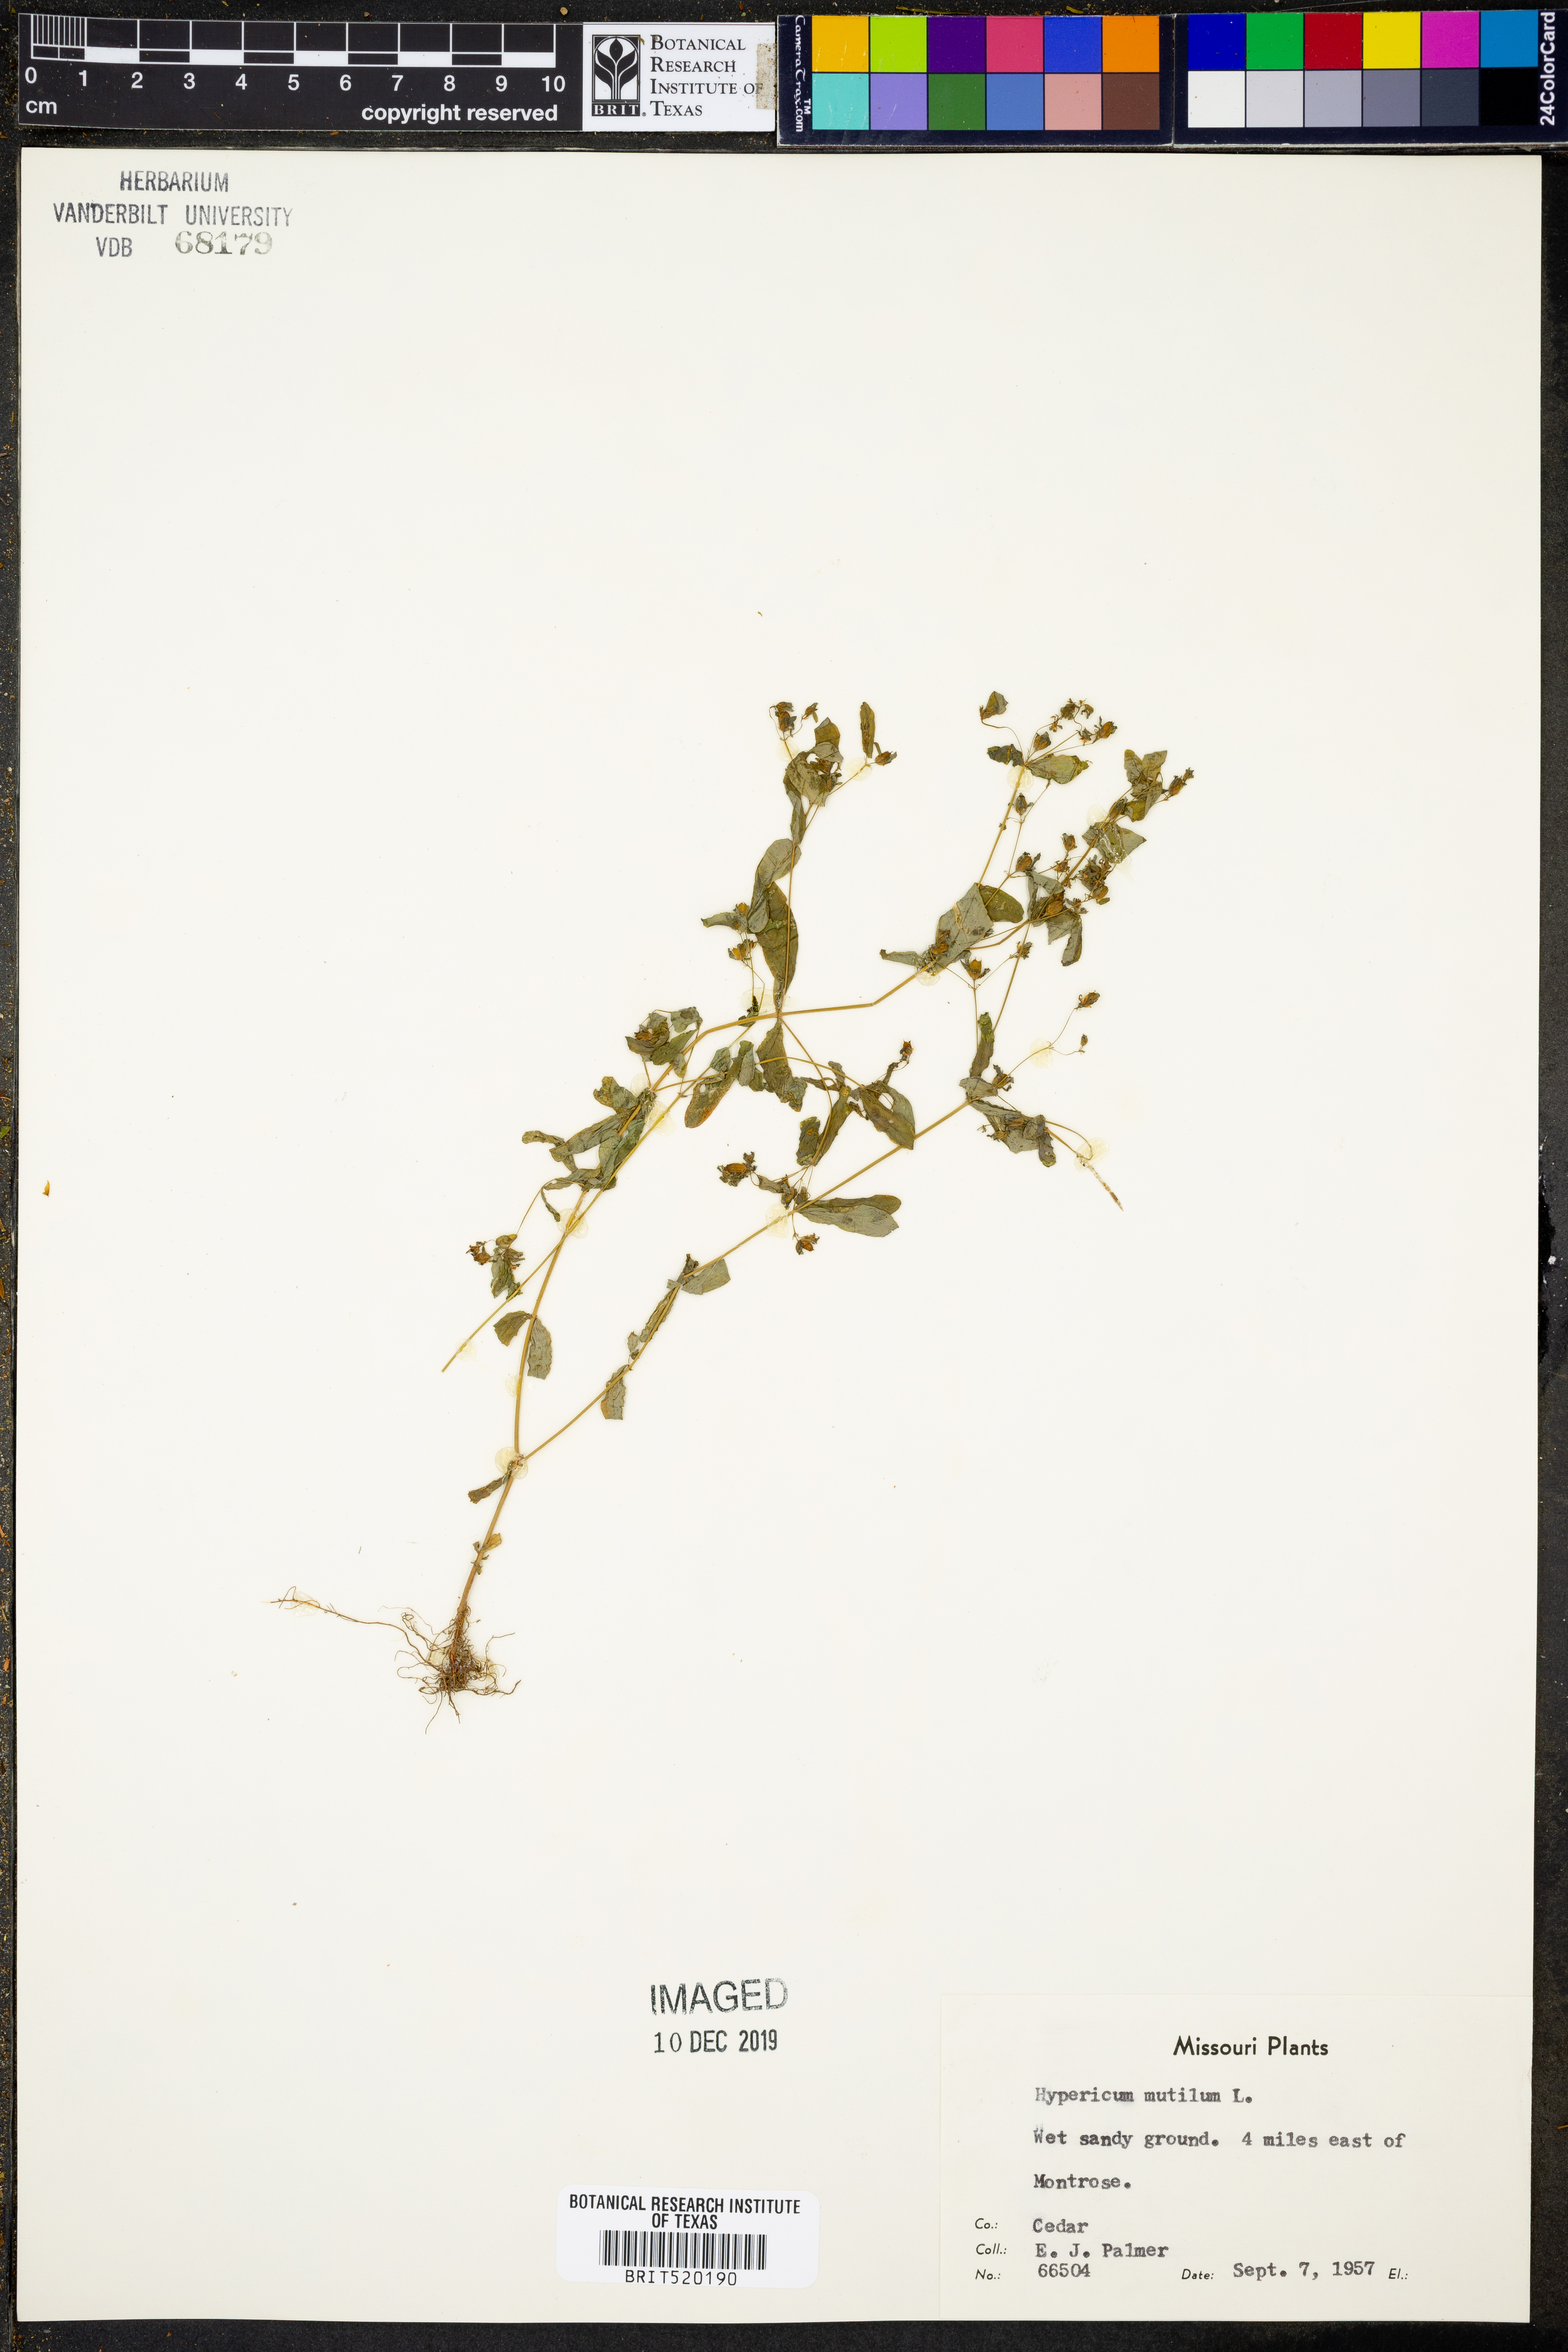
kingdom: Plantae
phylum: Tracheophyta
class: Magnoliopsida
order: Malpighiales
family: Hypericaceae
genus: Hypericum
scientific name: Hypericum mutilum
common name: Dwarf st. john's-wort
